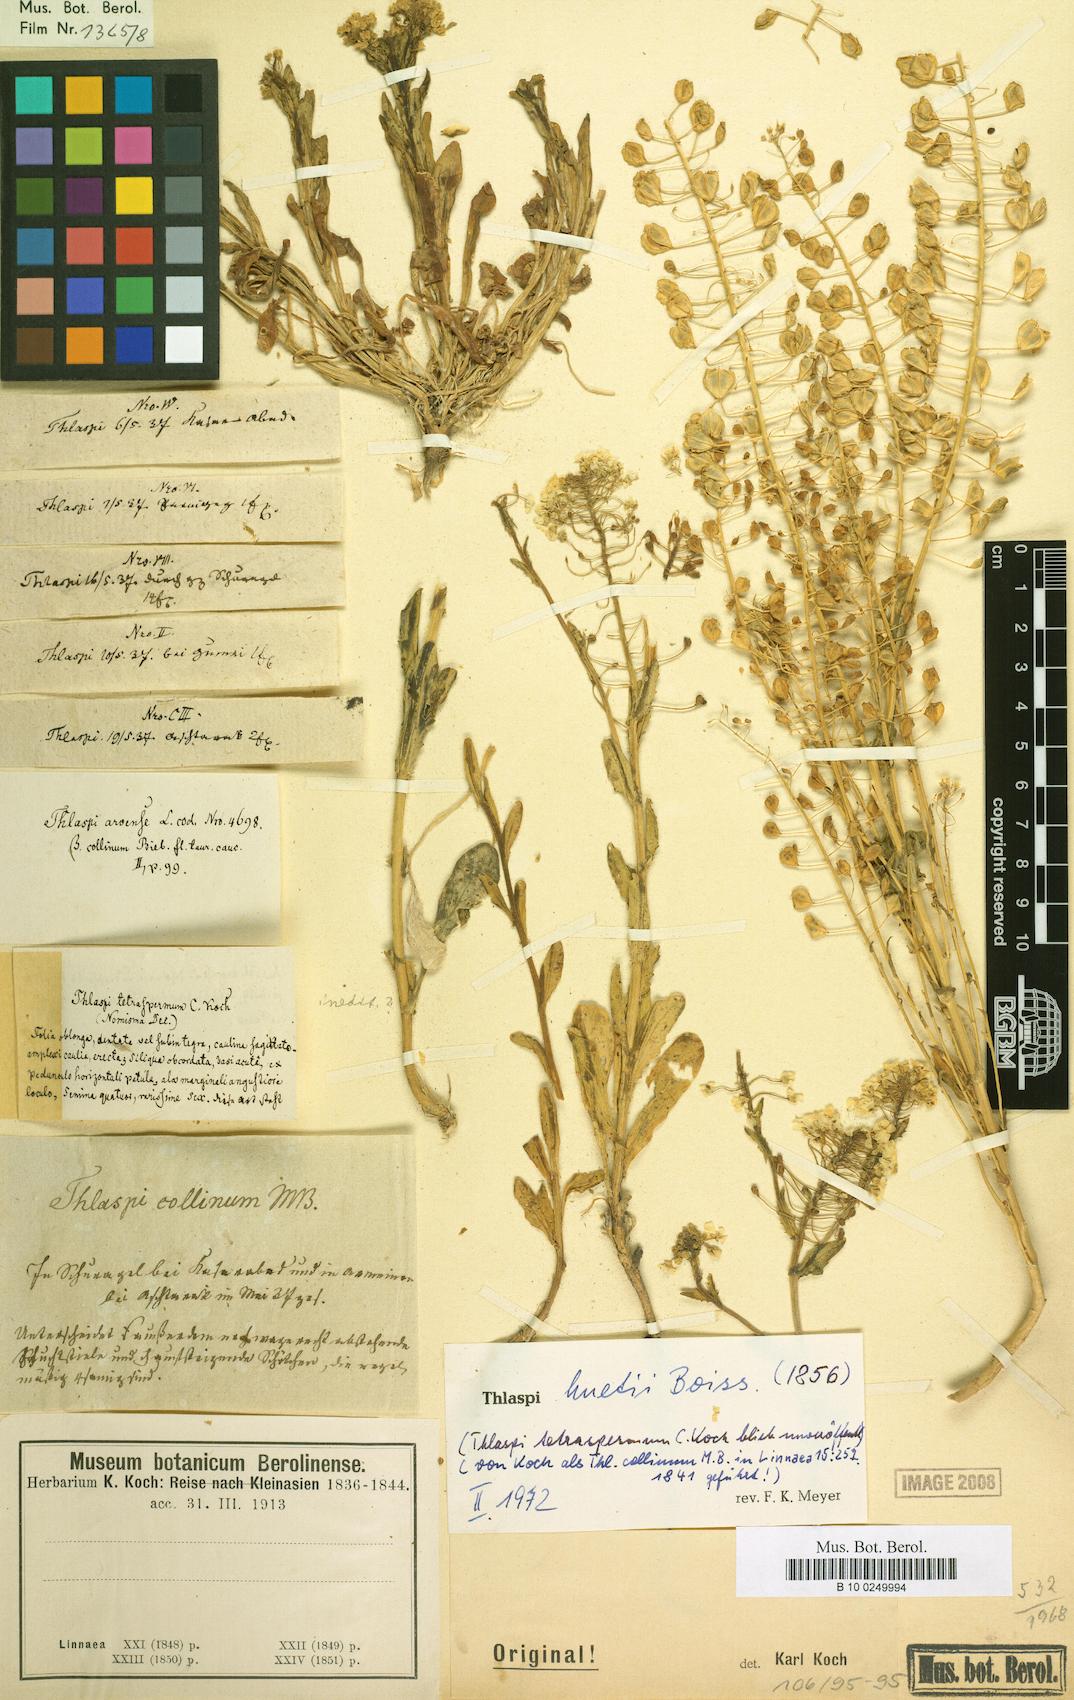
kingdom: Plantae
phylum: Tracheophyta
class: Magnoliopsida
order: Brassicales
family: Brassicaceae
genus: Thlaspi
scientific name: Thlaspi huetii
